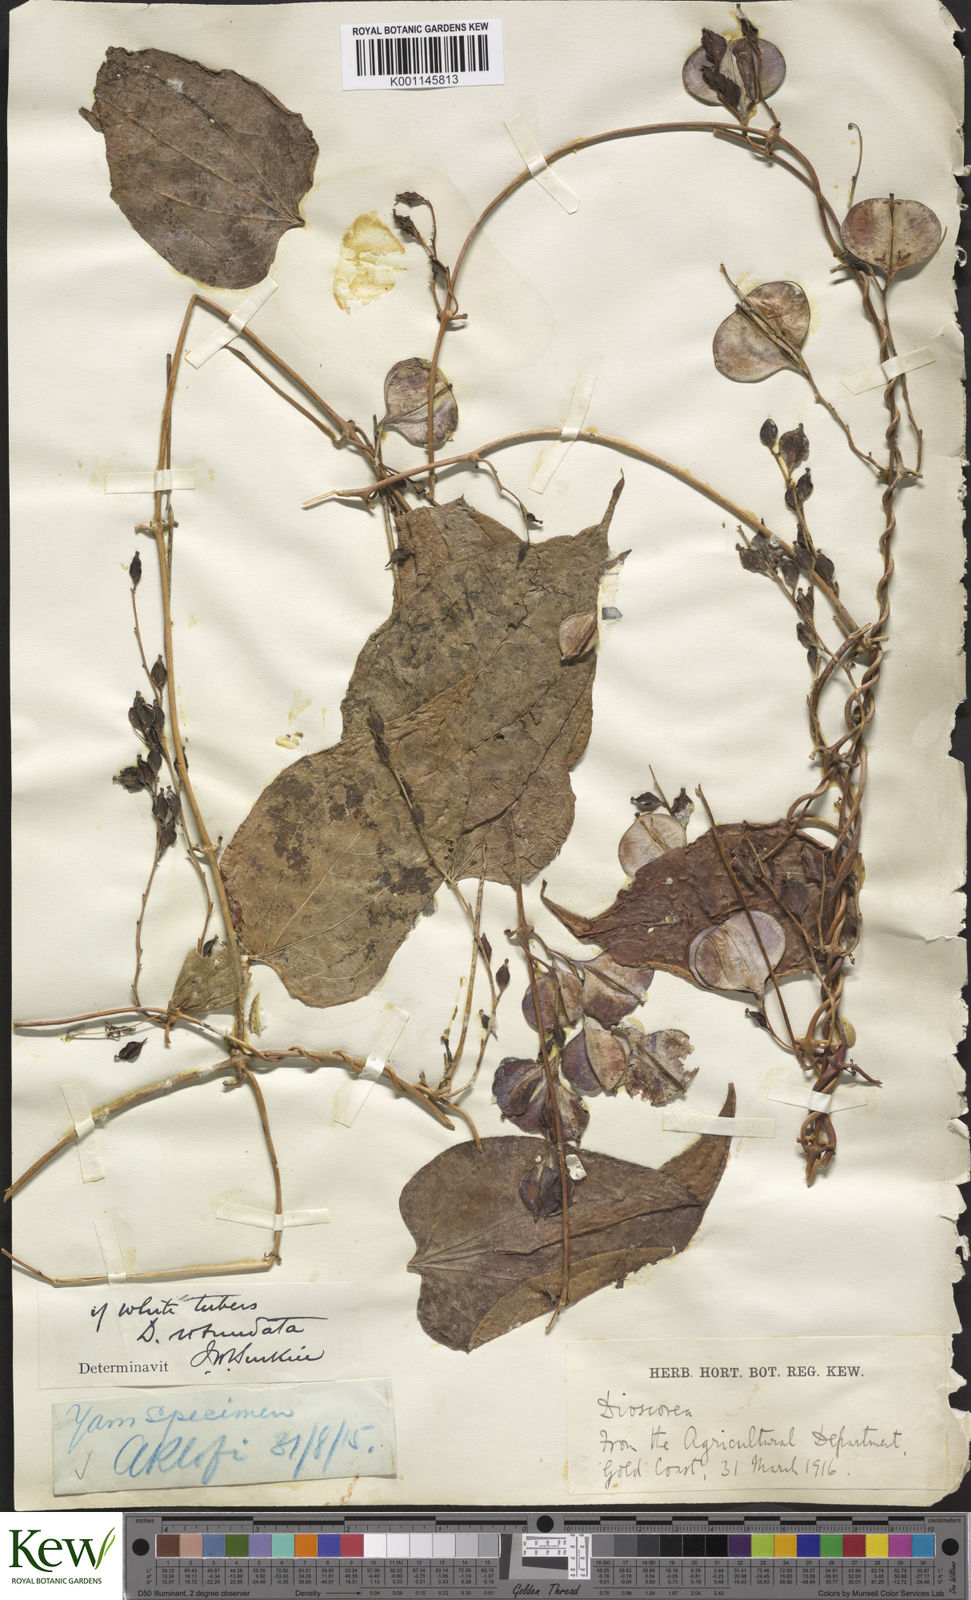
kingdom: Plantae
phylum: Tracheophyta
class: Liliopsida
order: Dioscoreales
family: Dioscoreaceae
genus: Dioscorea
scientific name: Dioscorea cayenensis
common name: Attoto yam
